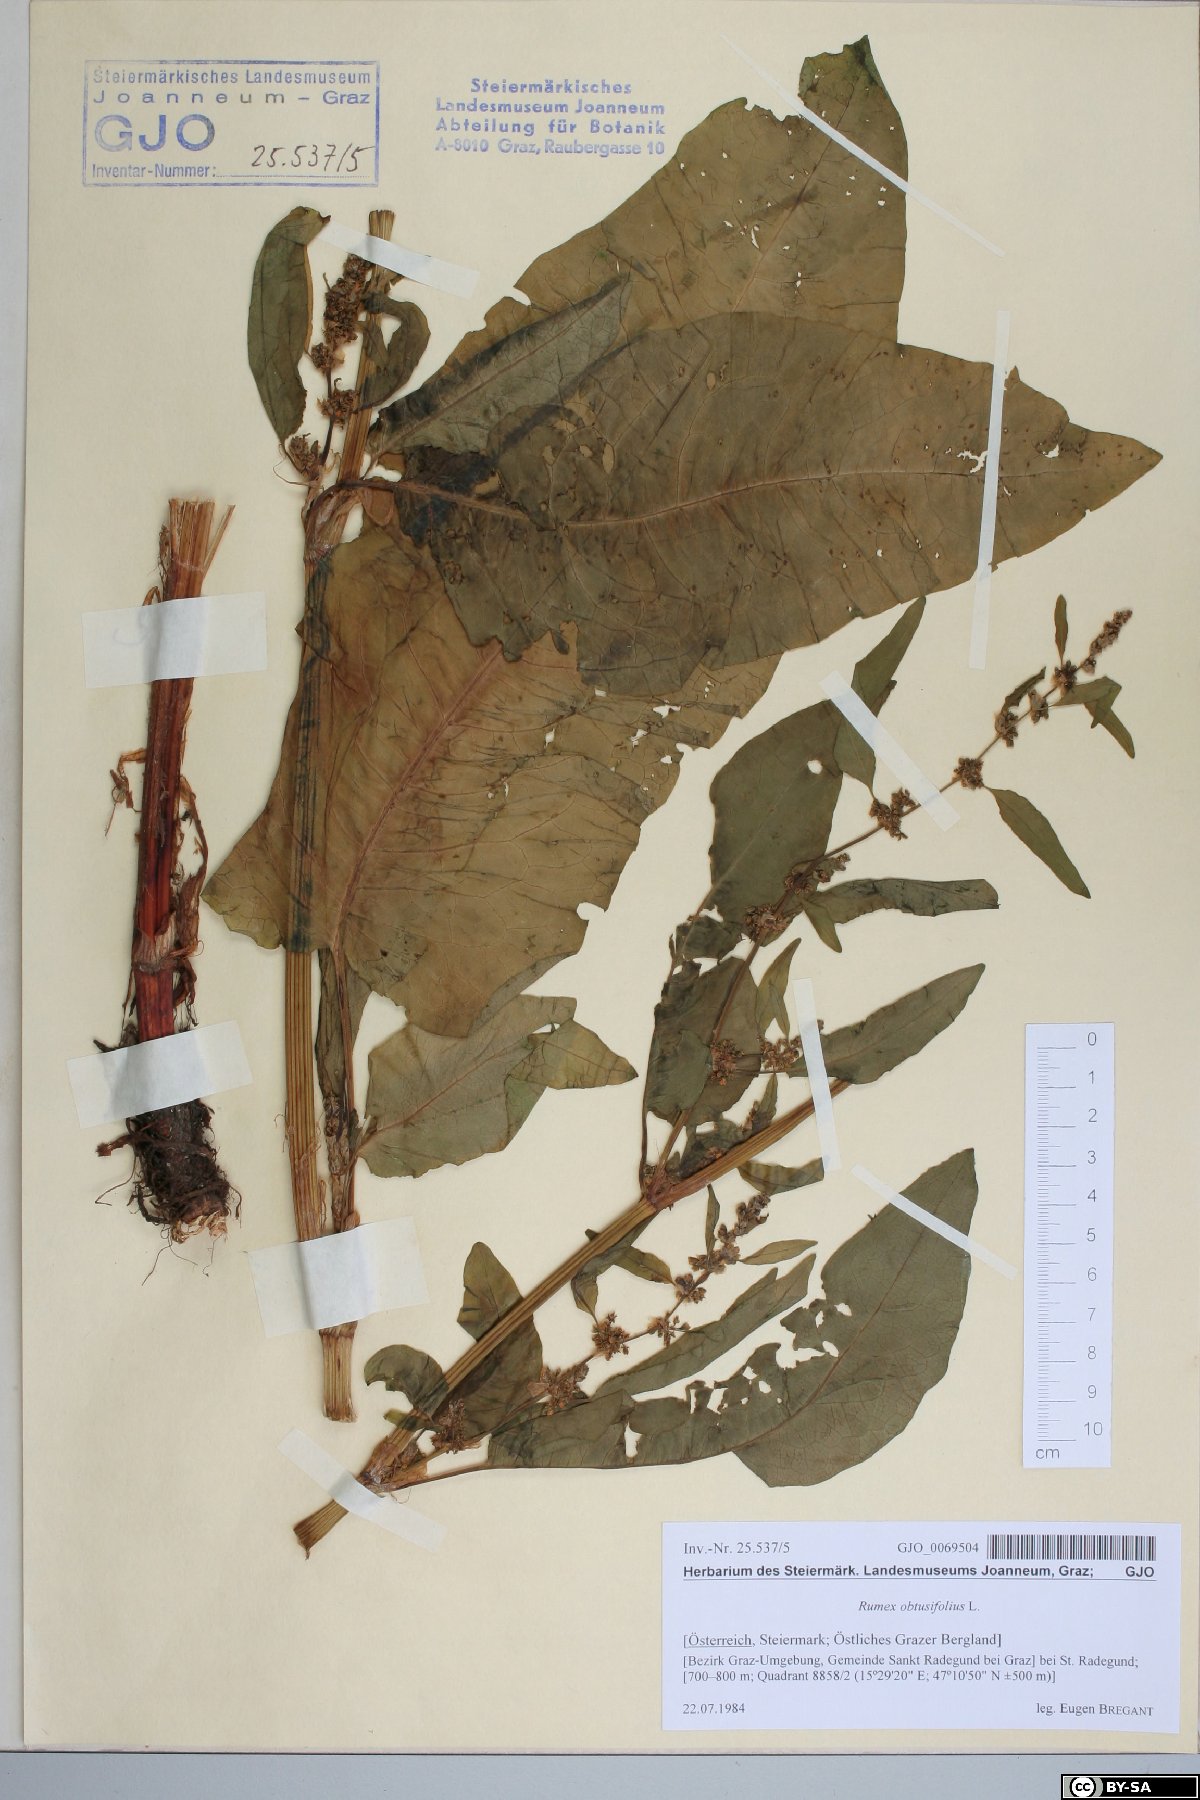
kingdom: Plantae
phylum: Tracheophyta
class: Magnoliopsida
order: Caryophyllales
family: Polygonaceae
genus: Rumex
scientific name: Rumex obtusifolius
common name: Bitter dock
